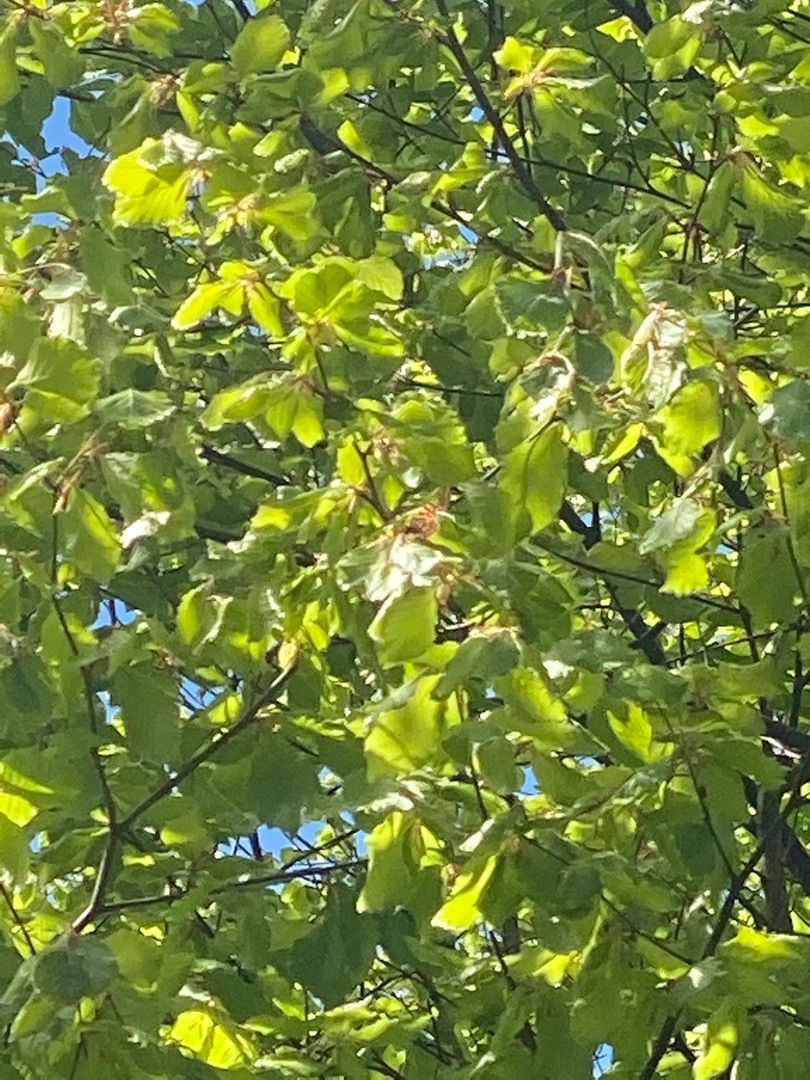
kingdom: Animalia
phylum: Arthropoda
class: Insecta
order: Lepidoptera
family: Nymphalidae
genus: Araschnia
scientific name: Araschnia levana
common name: Nældesommerfugl
